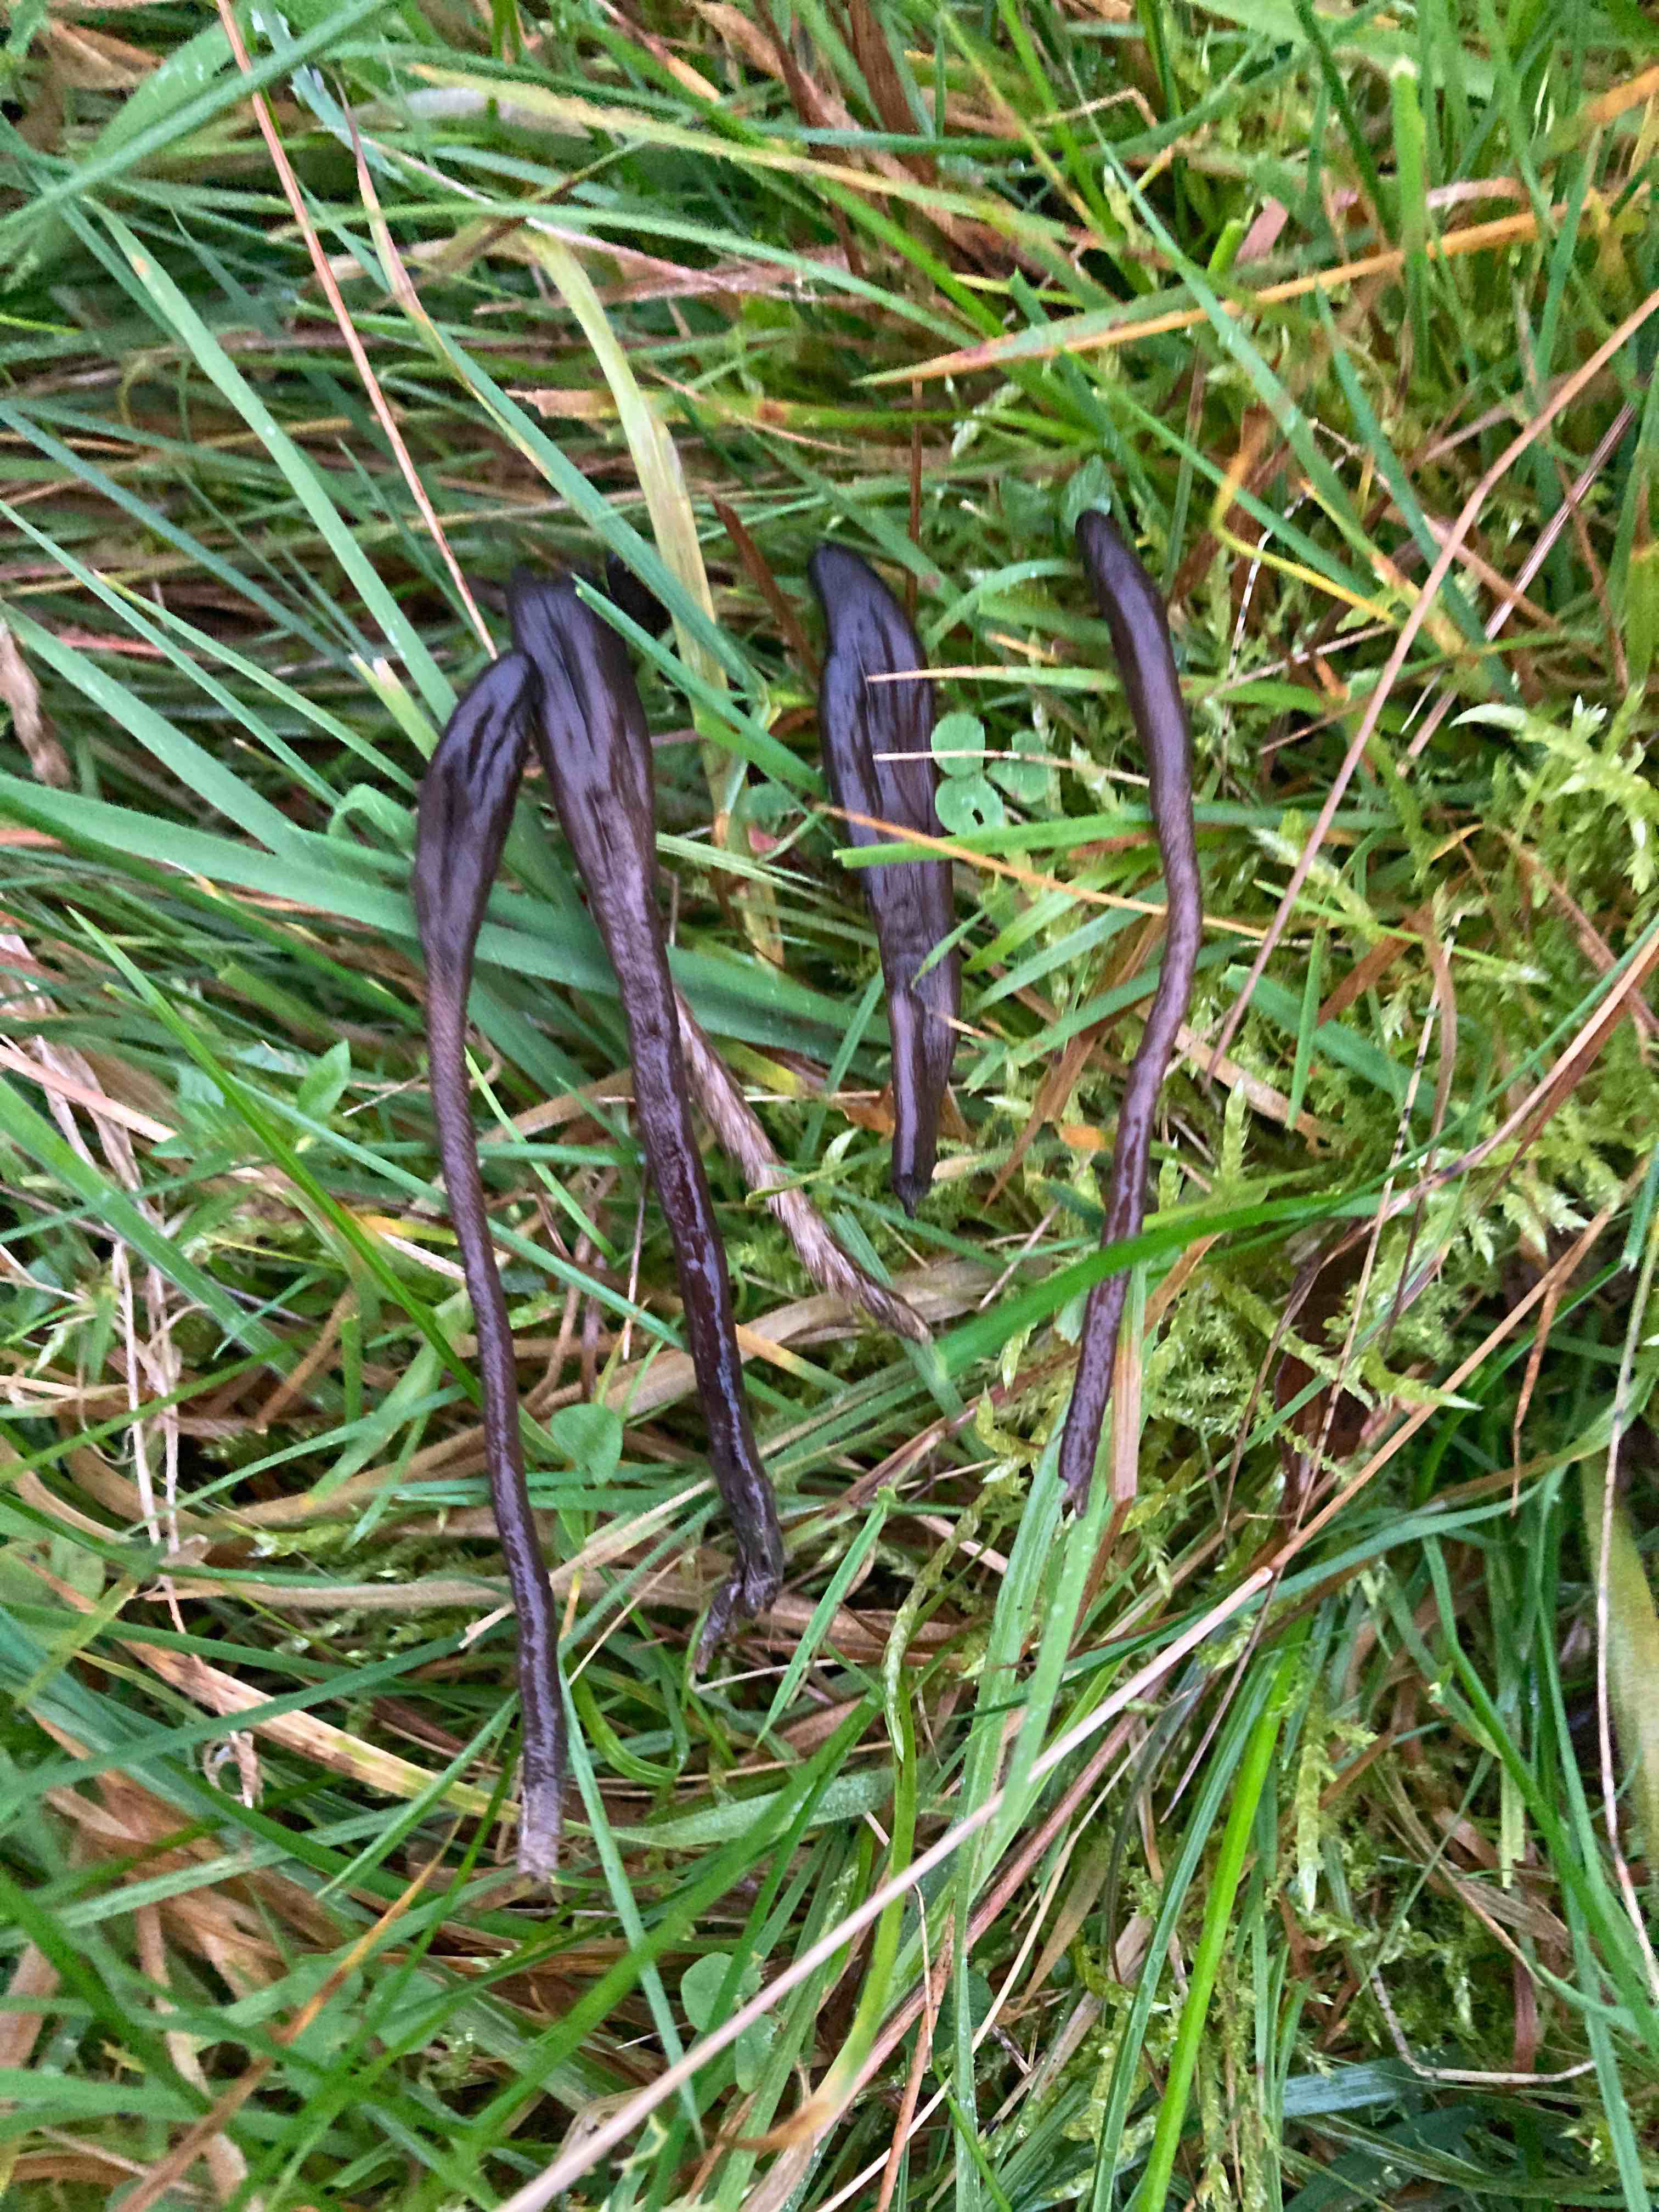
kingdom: Fungi
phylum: Ascomycota
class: Geoglossomycetes
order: Geoglossales
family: Geoglossaceae
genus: Geoglossum
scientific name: Geoglossum fallax
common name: småskællet jordtunge
